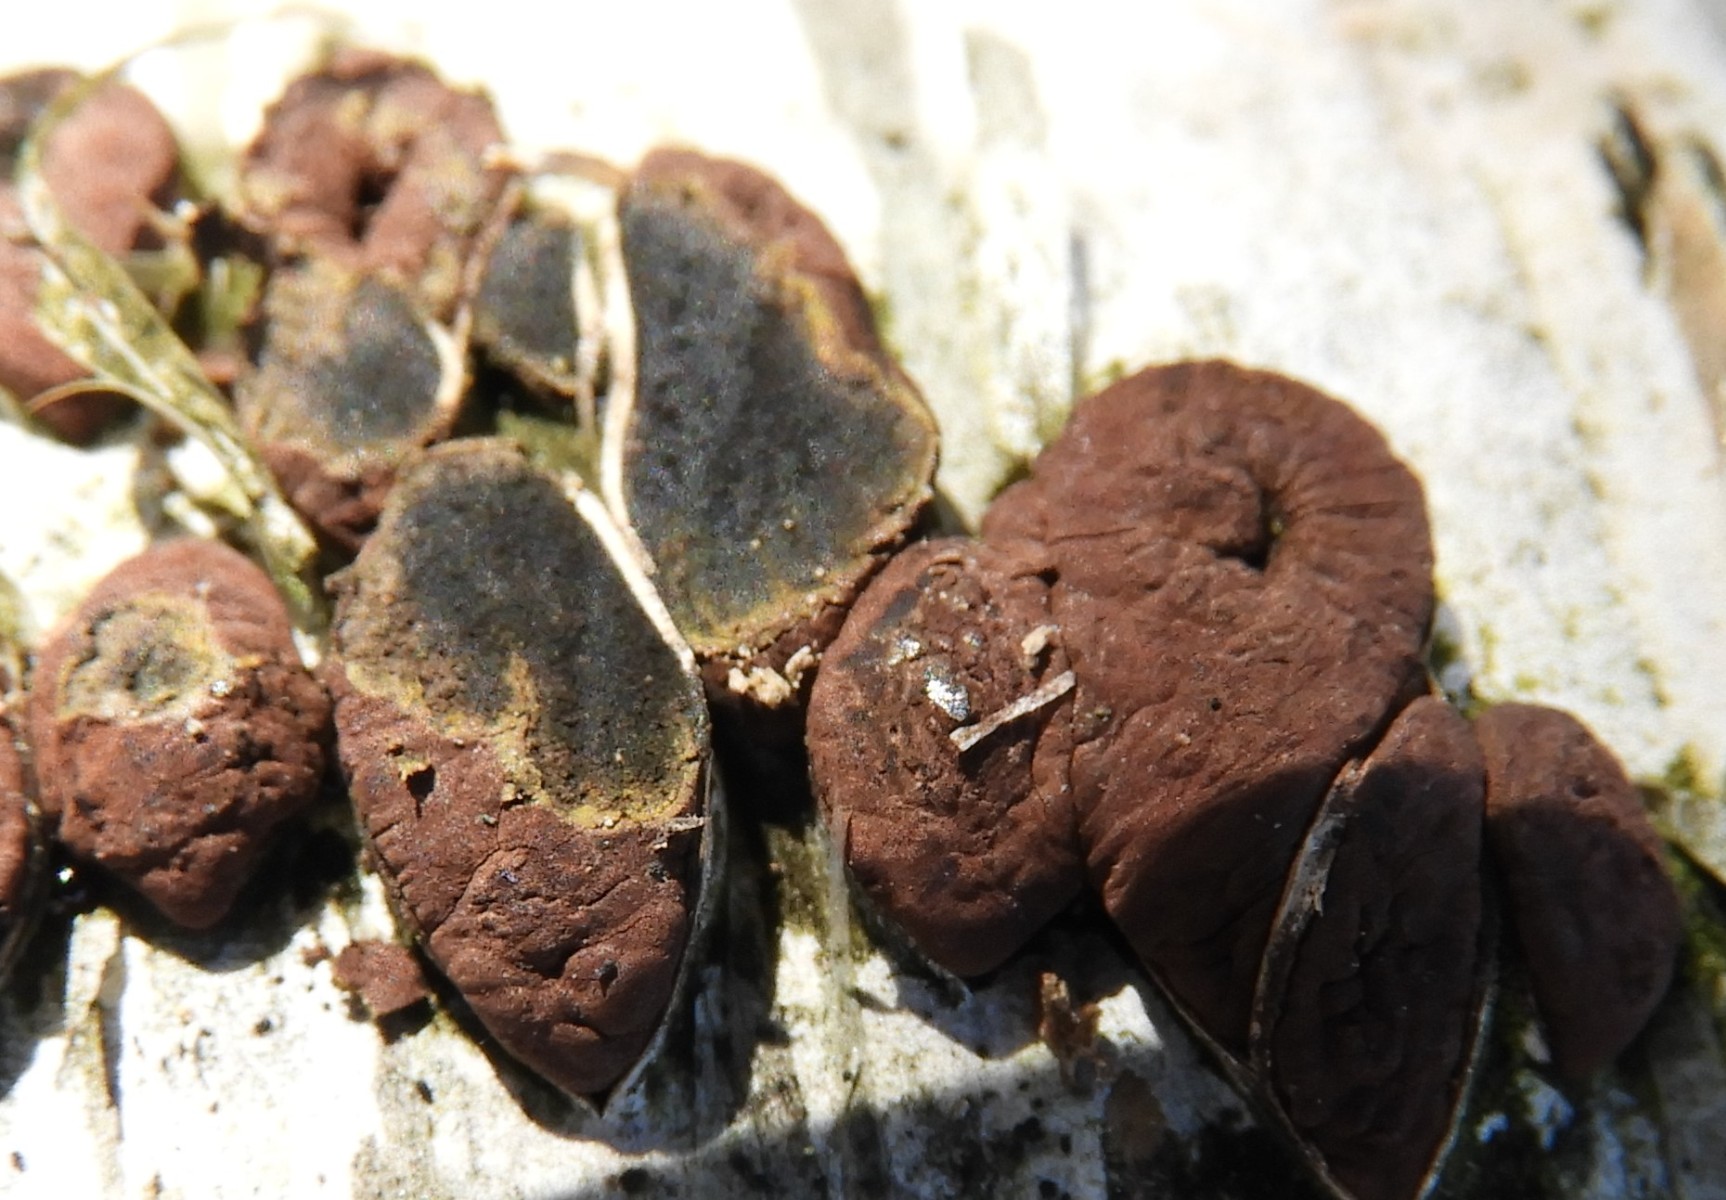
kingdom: Fungi
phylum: Ascomycota
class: Sordariomycetes
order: Xylariales
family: Hypoxylaceae
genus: Jackrogersella
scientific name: Jackrogersella multiformis
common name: foranderlig kulbær
